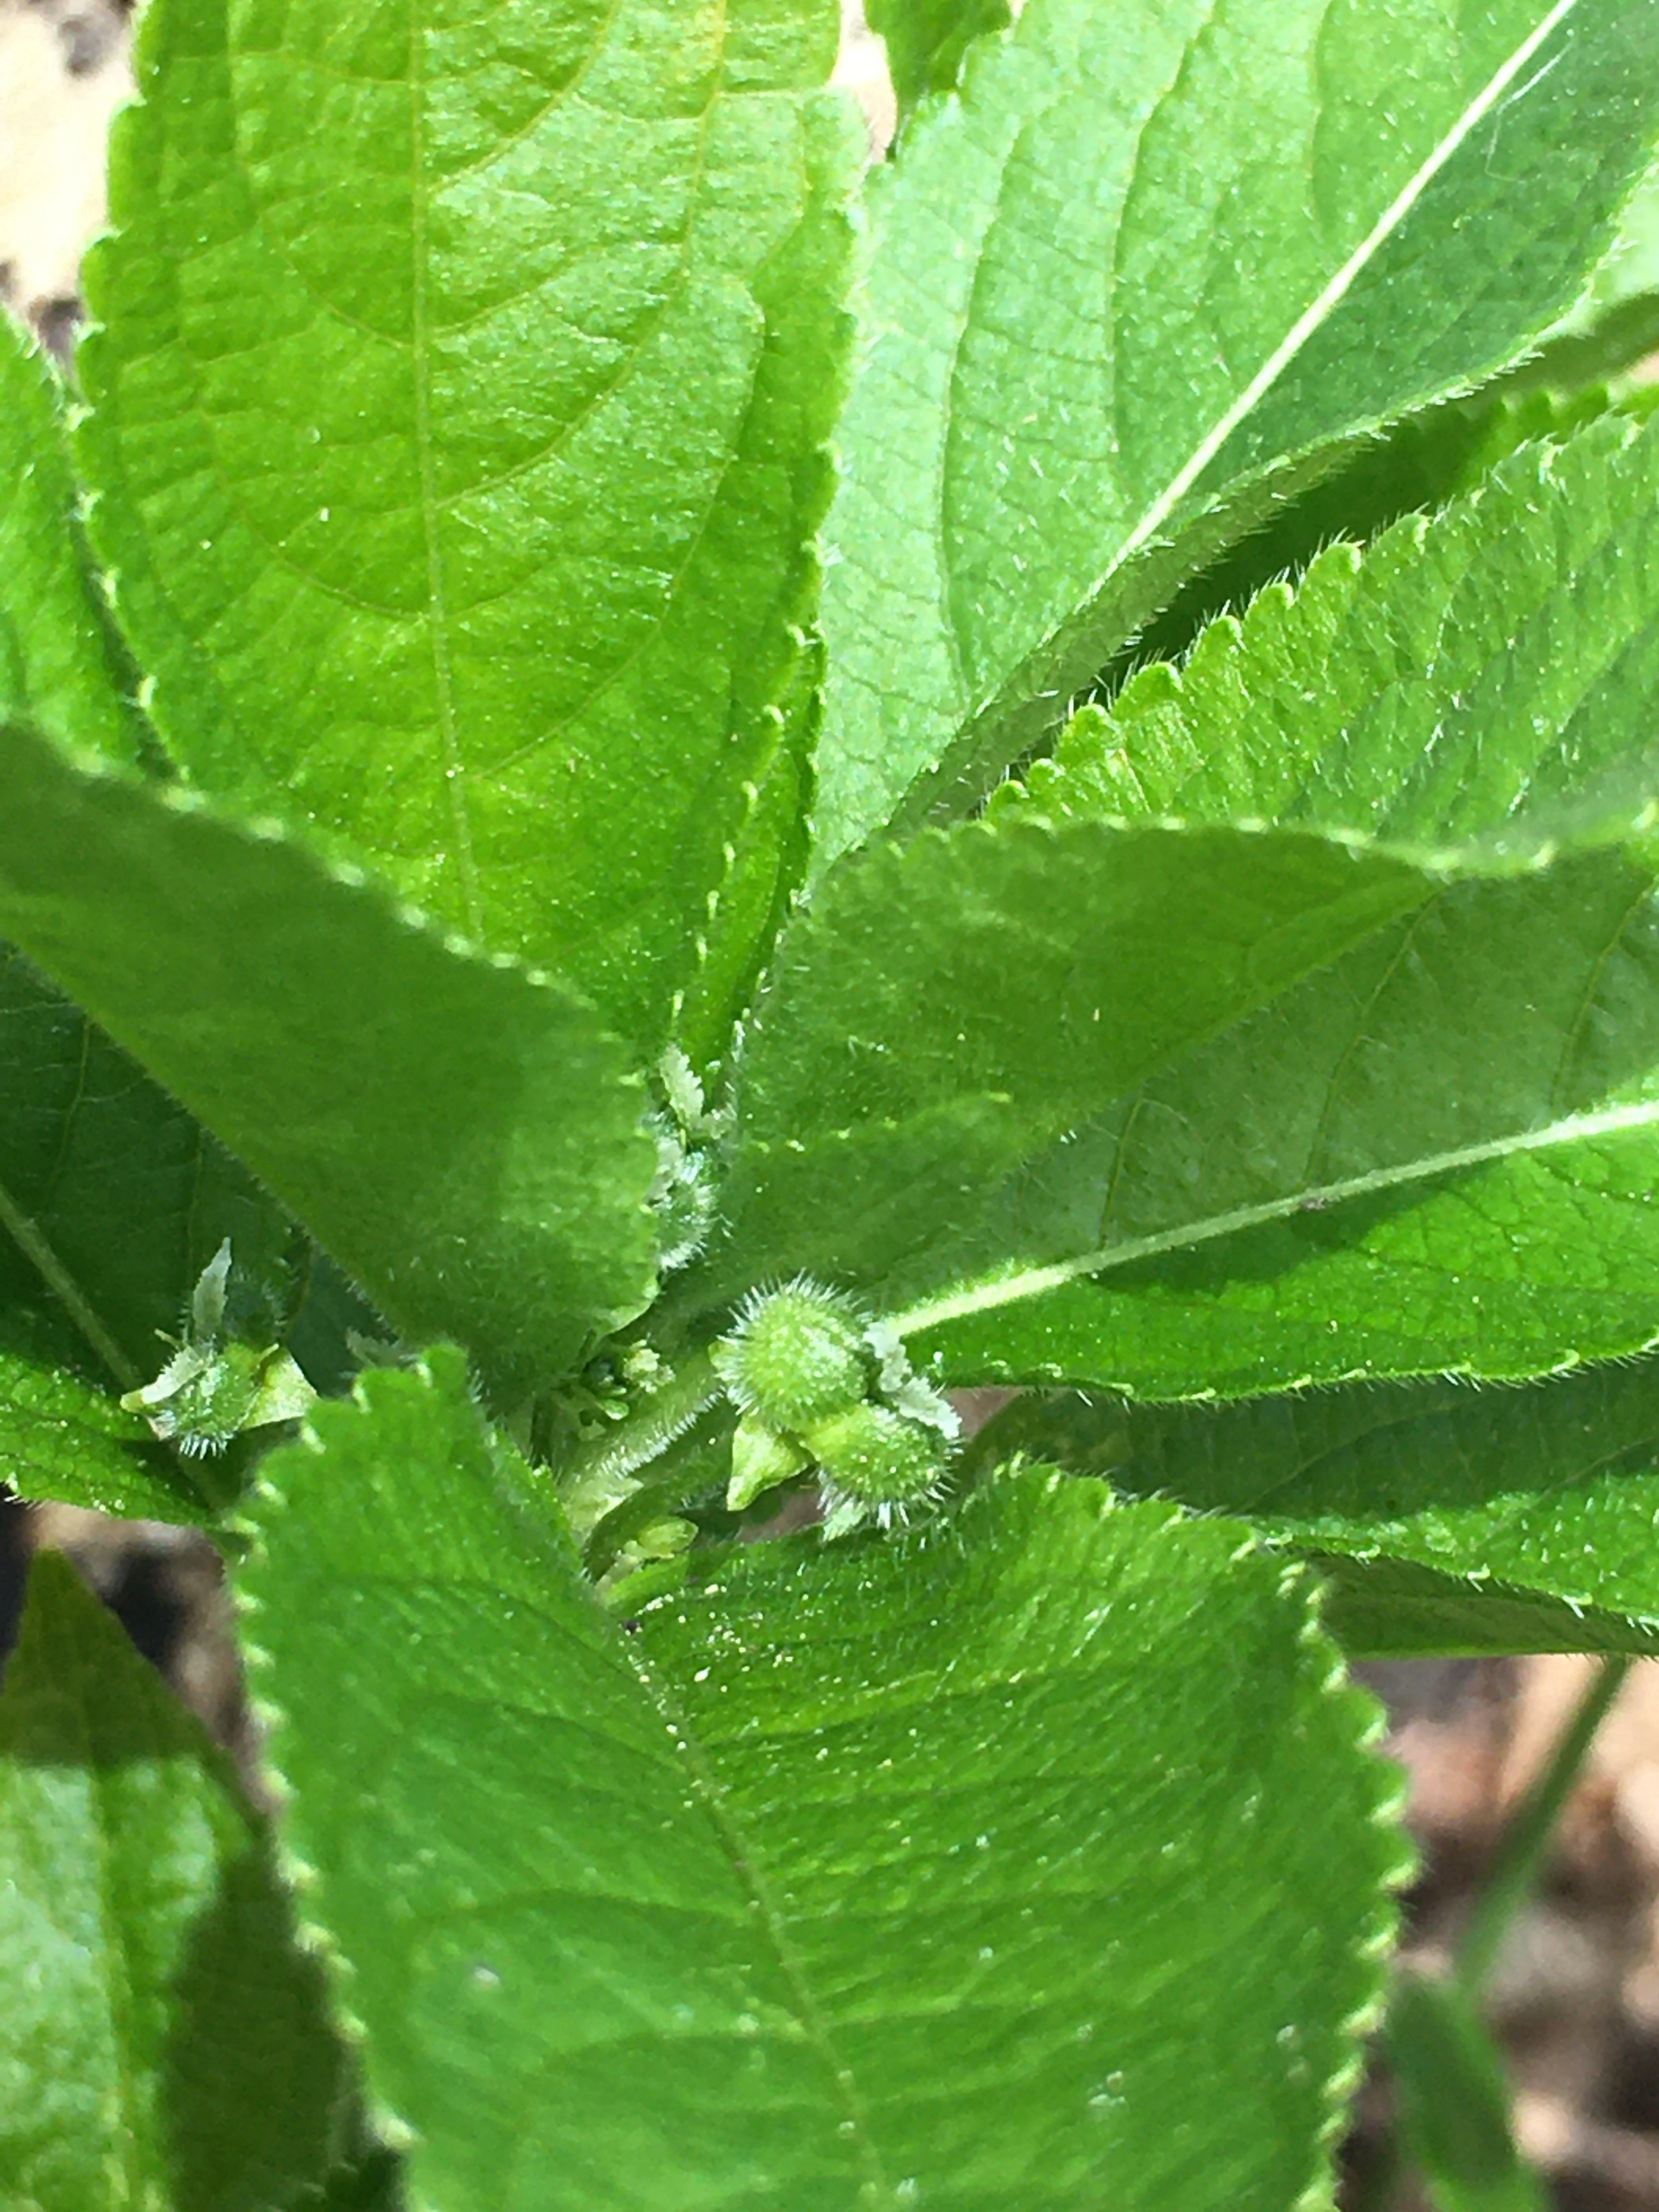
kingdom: Plantae
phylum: Tracheophyta
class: Magnoliopsida
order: Malpighiales
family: Euphorbiaceae
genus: Mercurialis
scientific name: Mercurialis perennis
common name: Almindelig bingelurt
